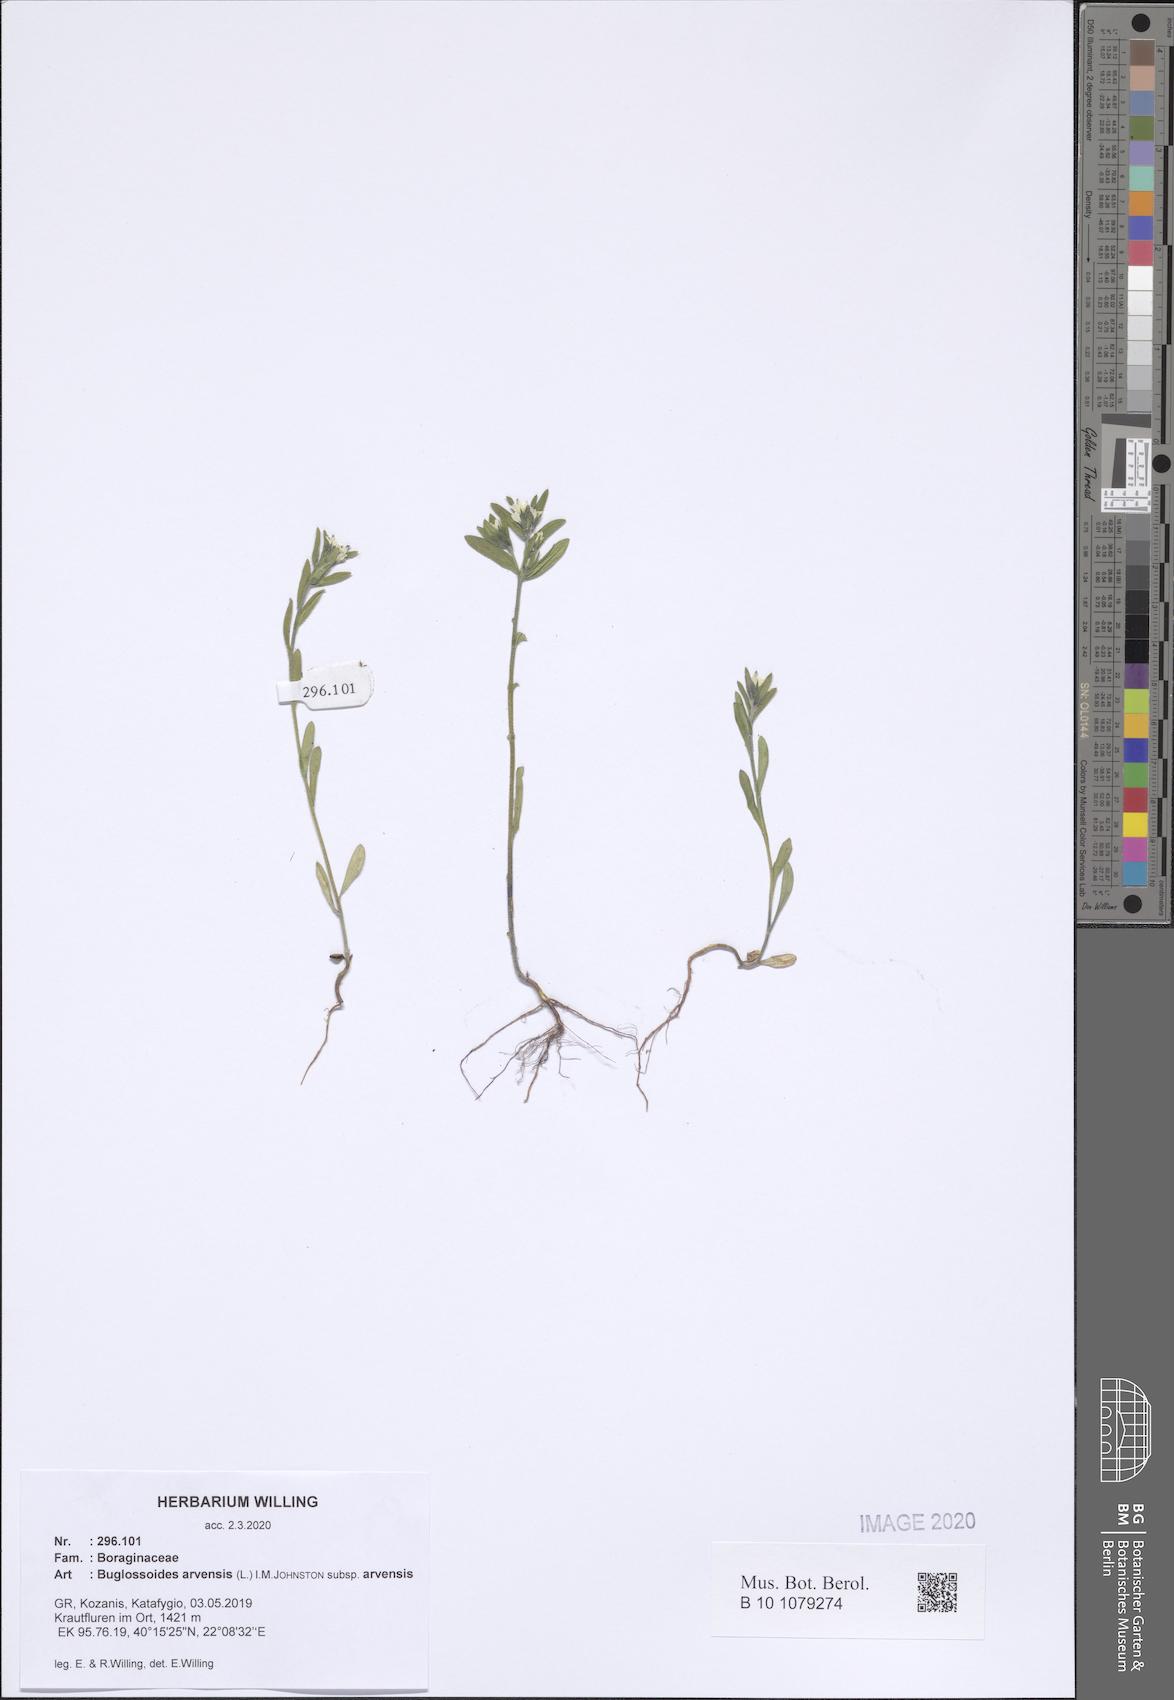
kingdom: Plantae
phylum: Tracheophyta
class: Magnoliopsida
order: Boraginales
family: Boraginaceae
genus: Buglossoides
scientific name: Buglossoides arvensis
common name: Corn gromwell
